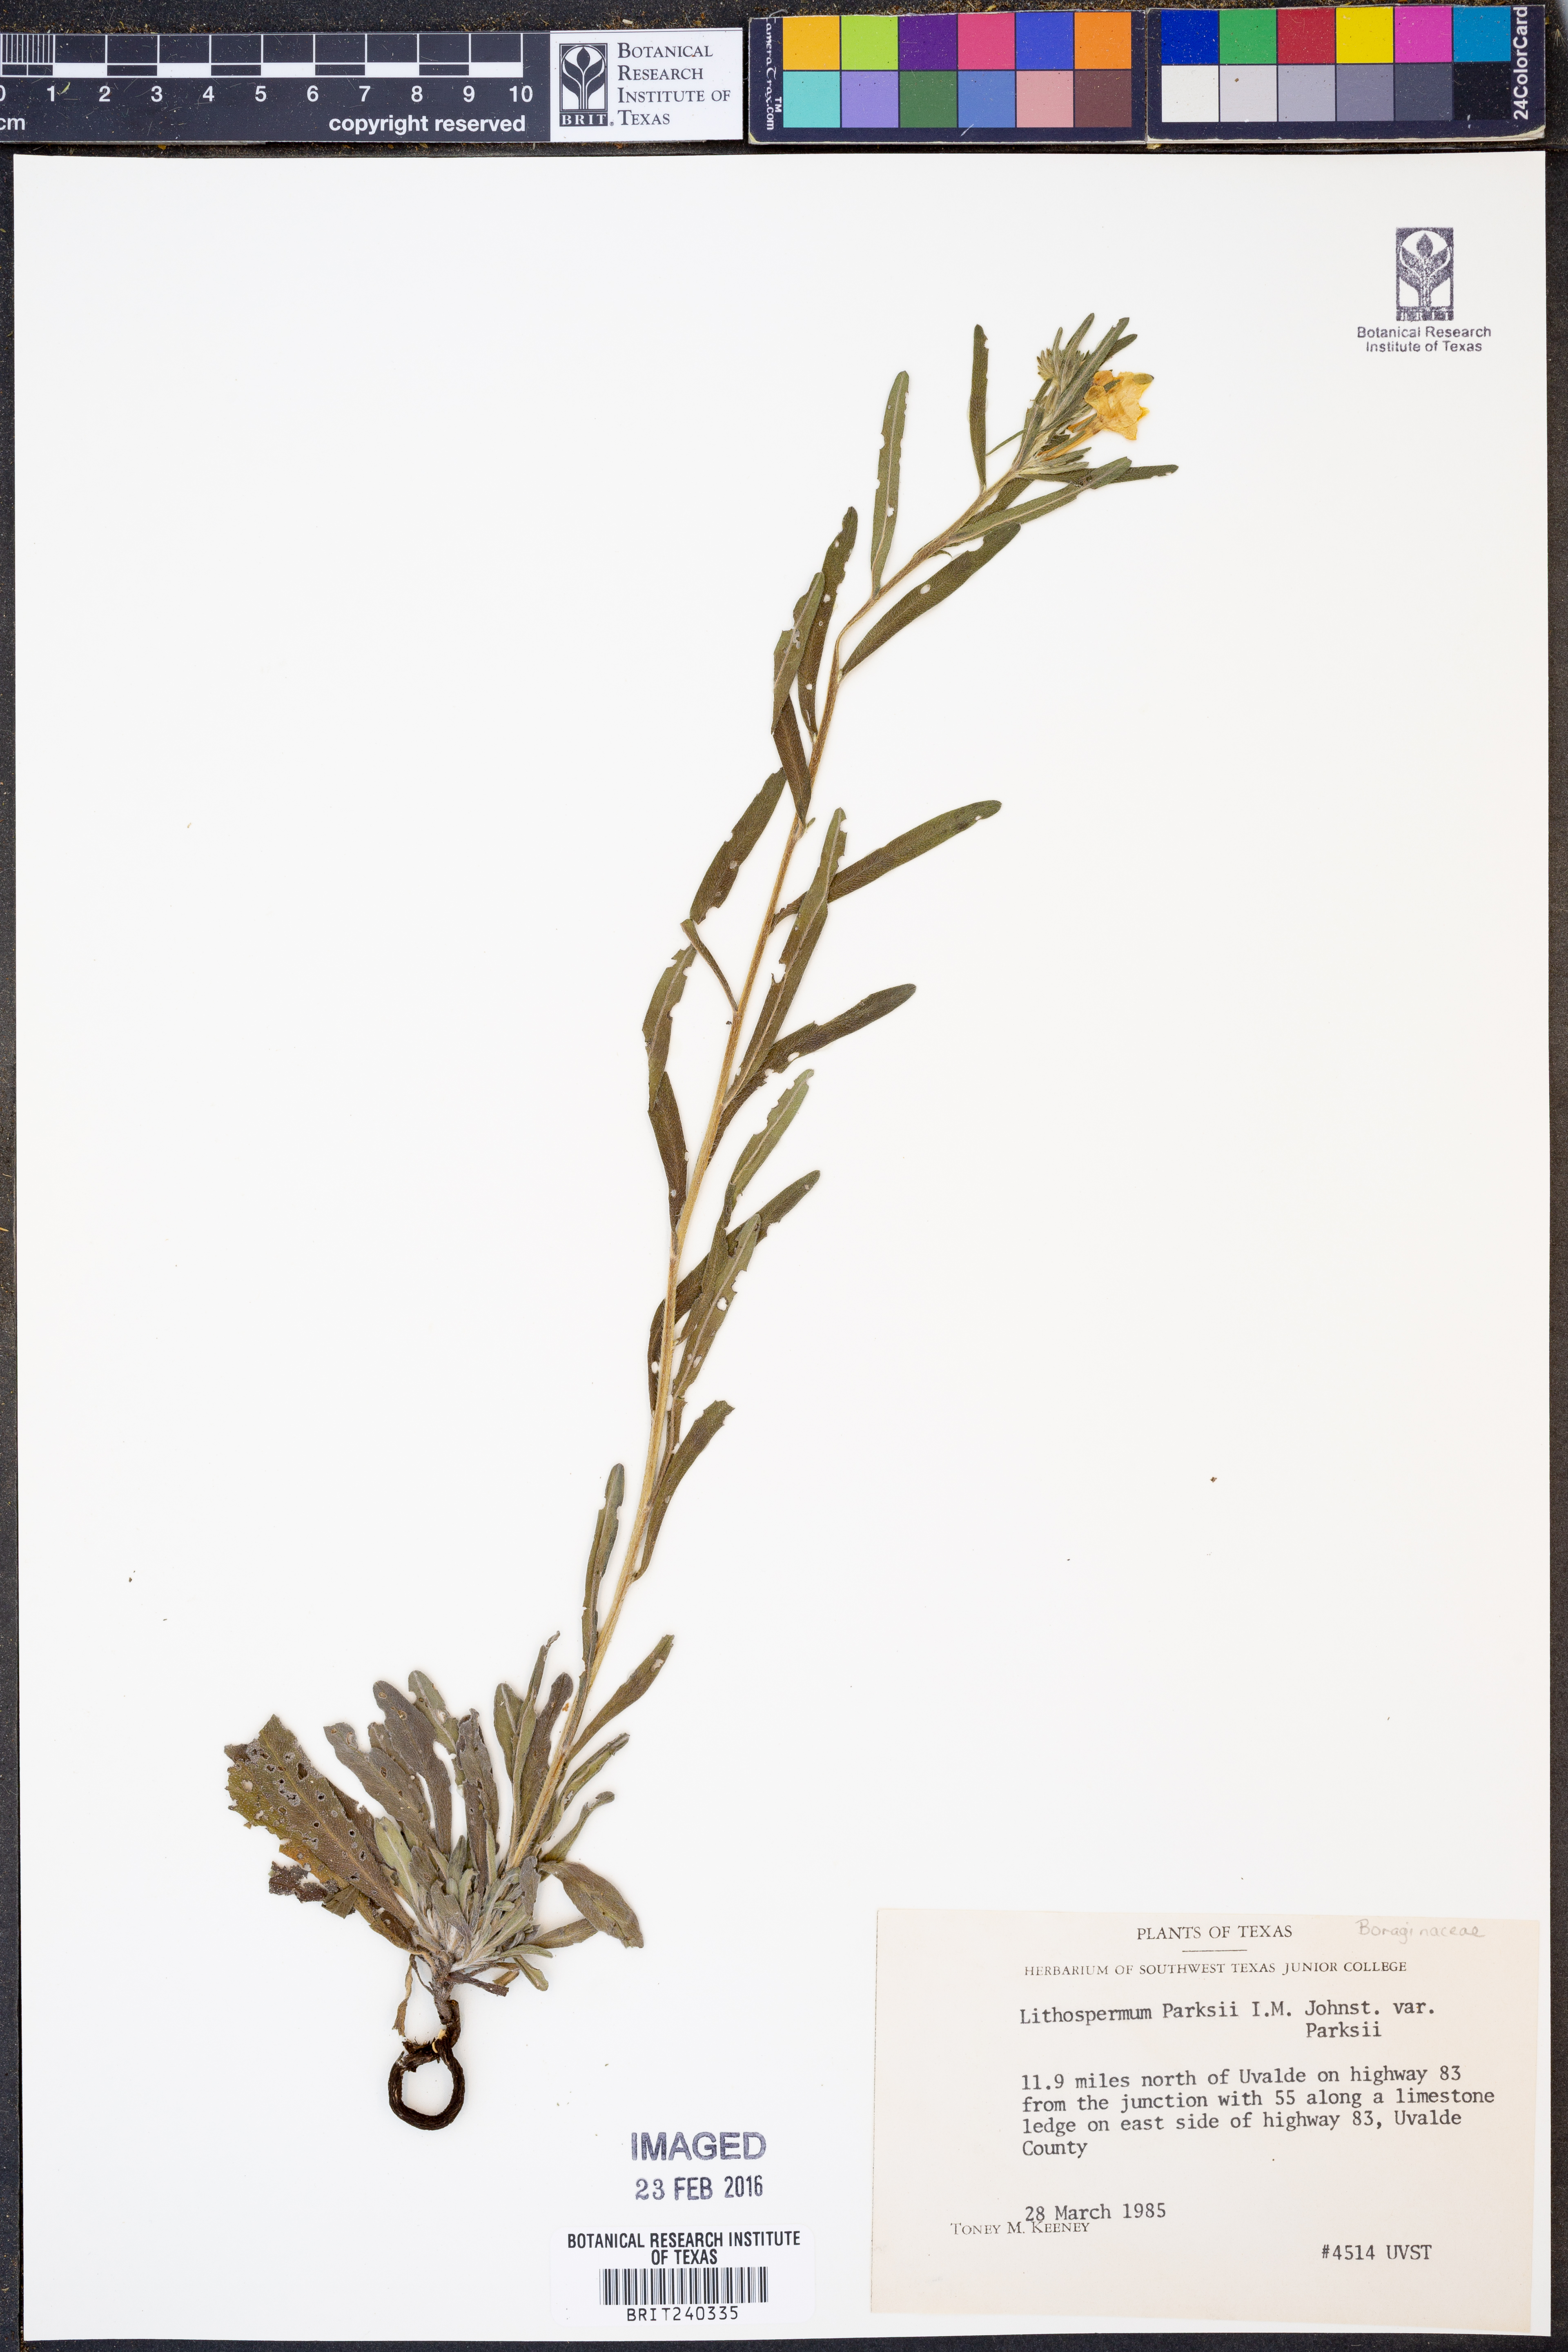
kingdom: Plantae
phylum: Tracheophyta
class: Magnoliopsida
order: Boraginales
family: Boraginaceae
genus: Lithospermum
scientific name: Lithospermum parksii
